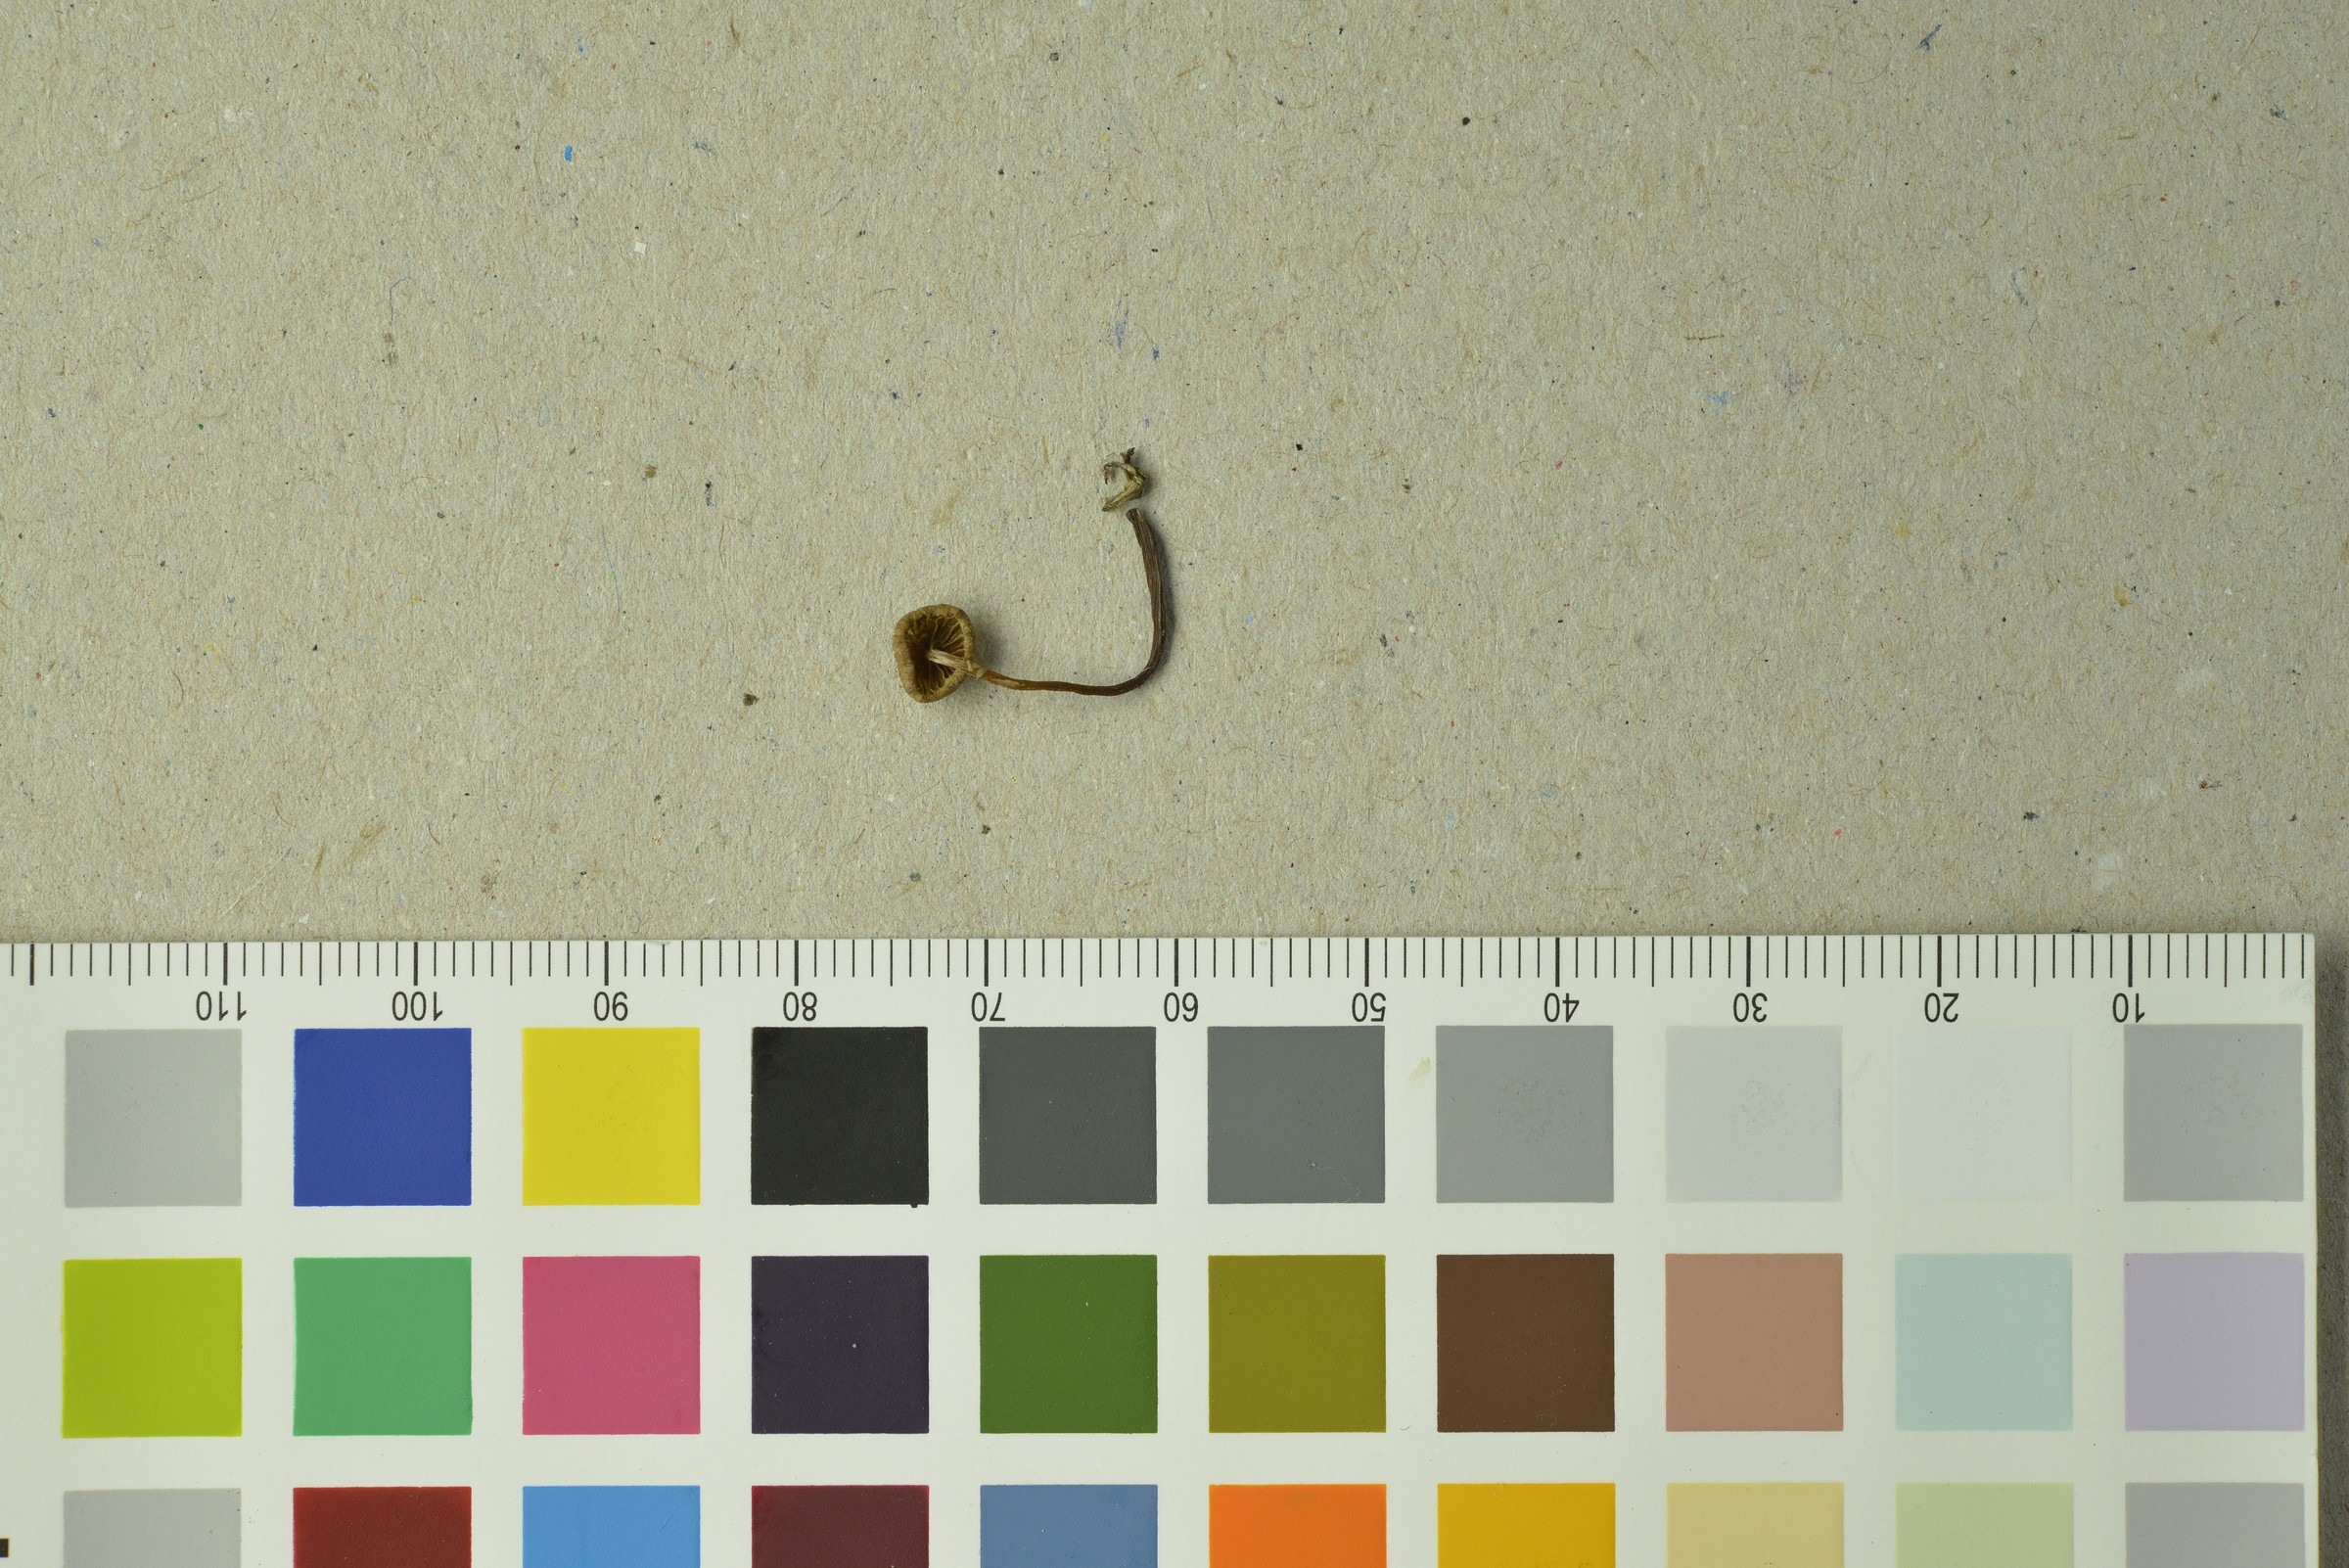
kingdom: Fungi
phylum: Basidiomycota
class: Agaricomycetes
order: Agaricales
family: Hymenogastraceae
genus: Naucoria
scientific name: Naucoria escharioides
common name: Ochre aldercap
